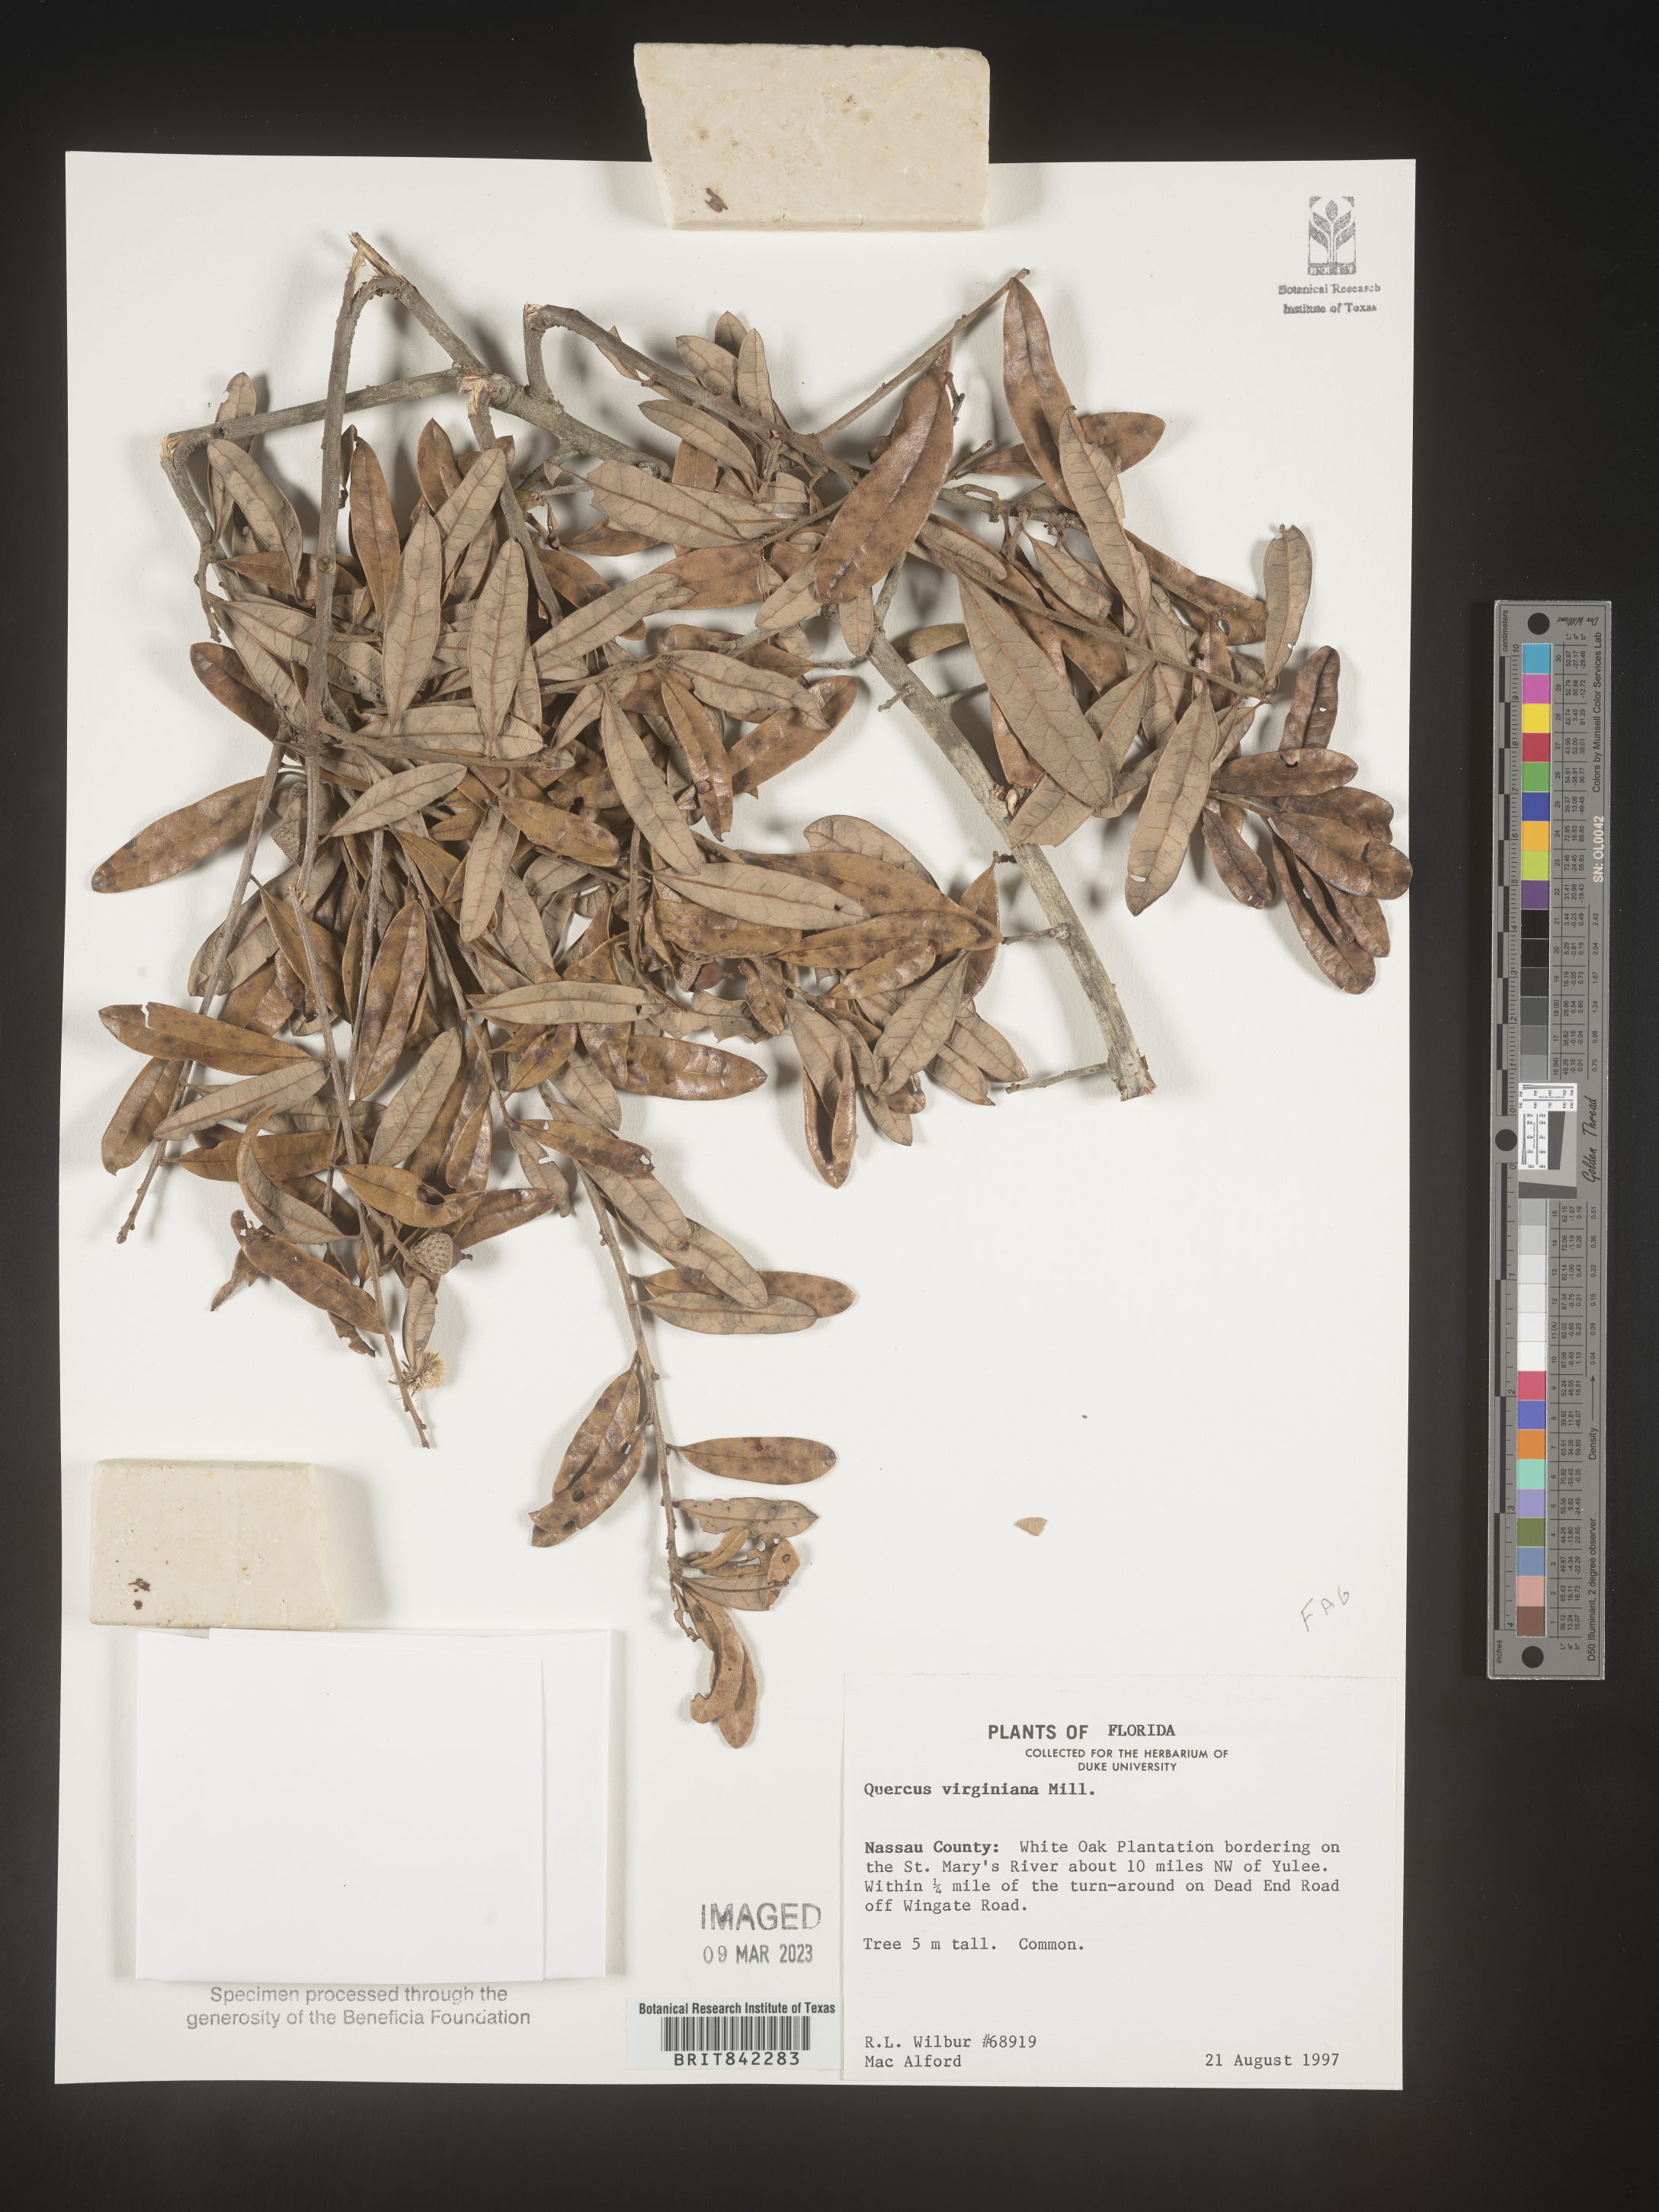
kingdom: Plantae
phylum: Tracheophyta
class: Magnoliopsida
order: Fagales
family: Fagaceae
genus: Quercus
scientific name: Quercus virginiana
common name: Southern live oak
